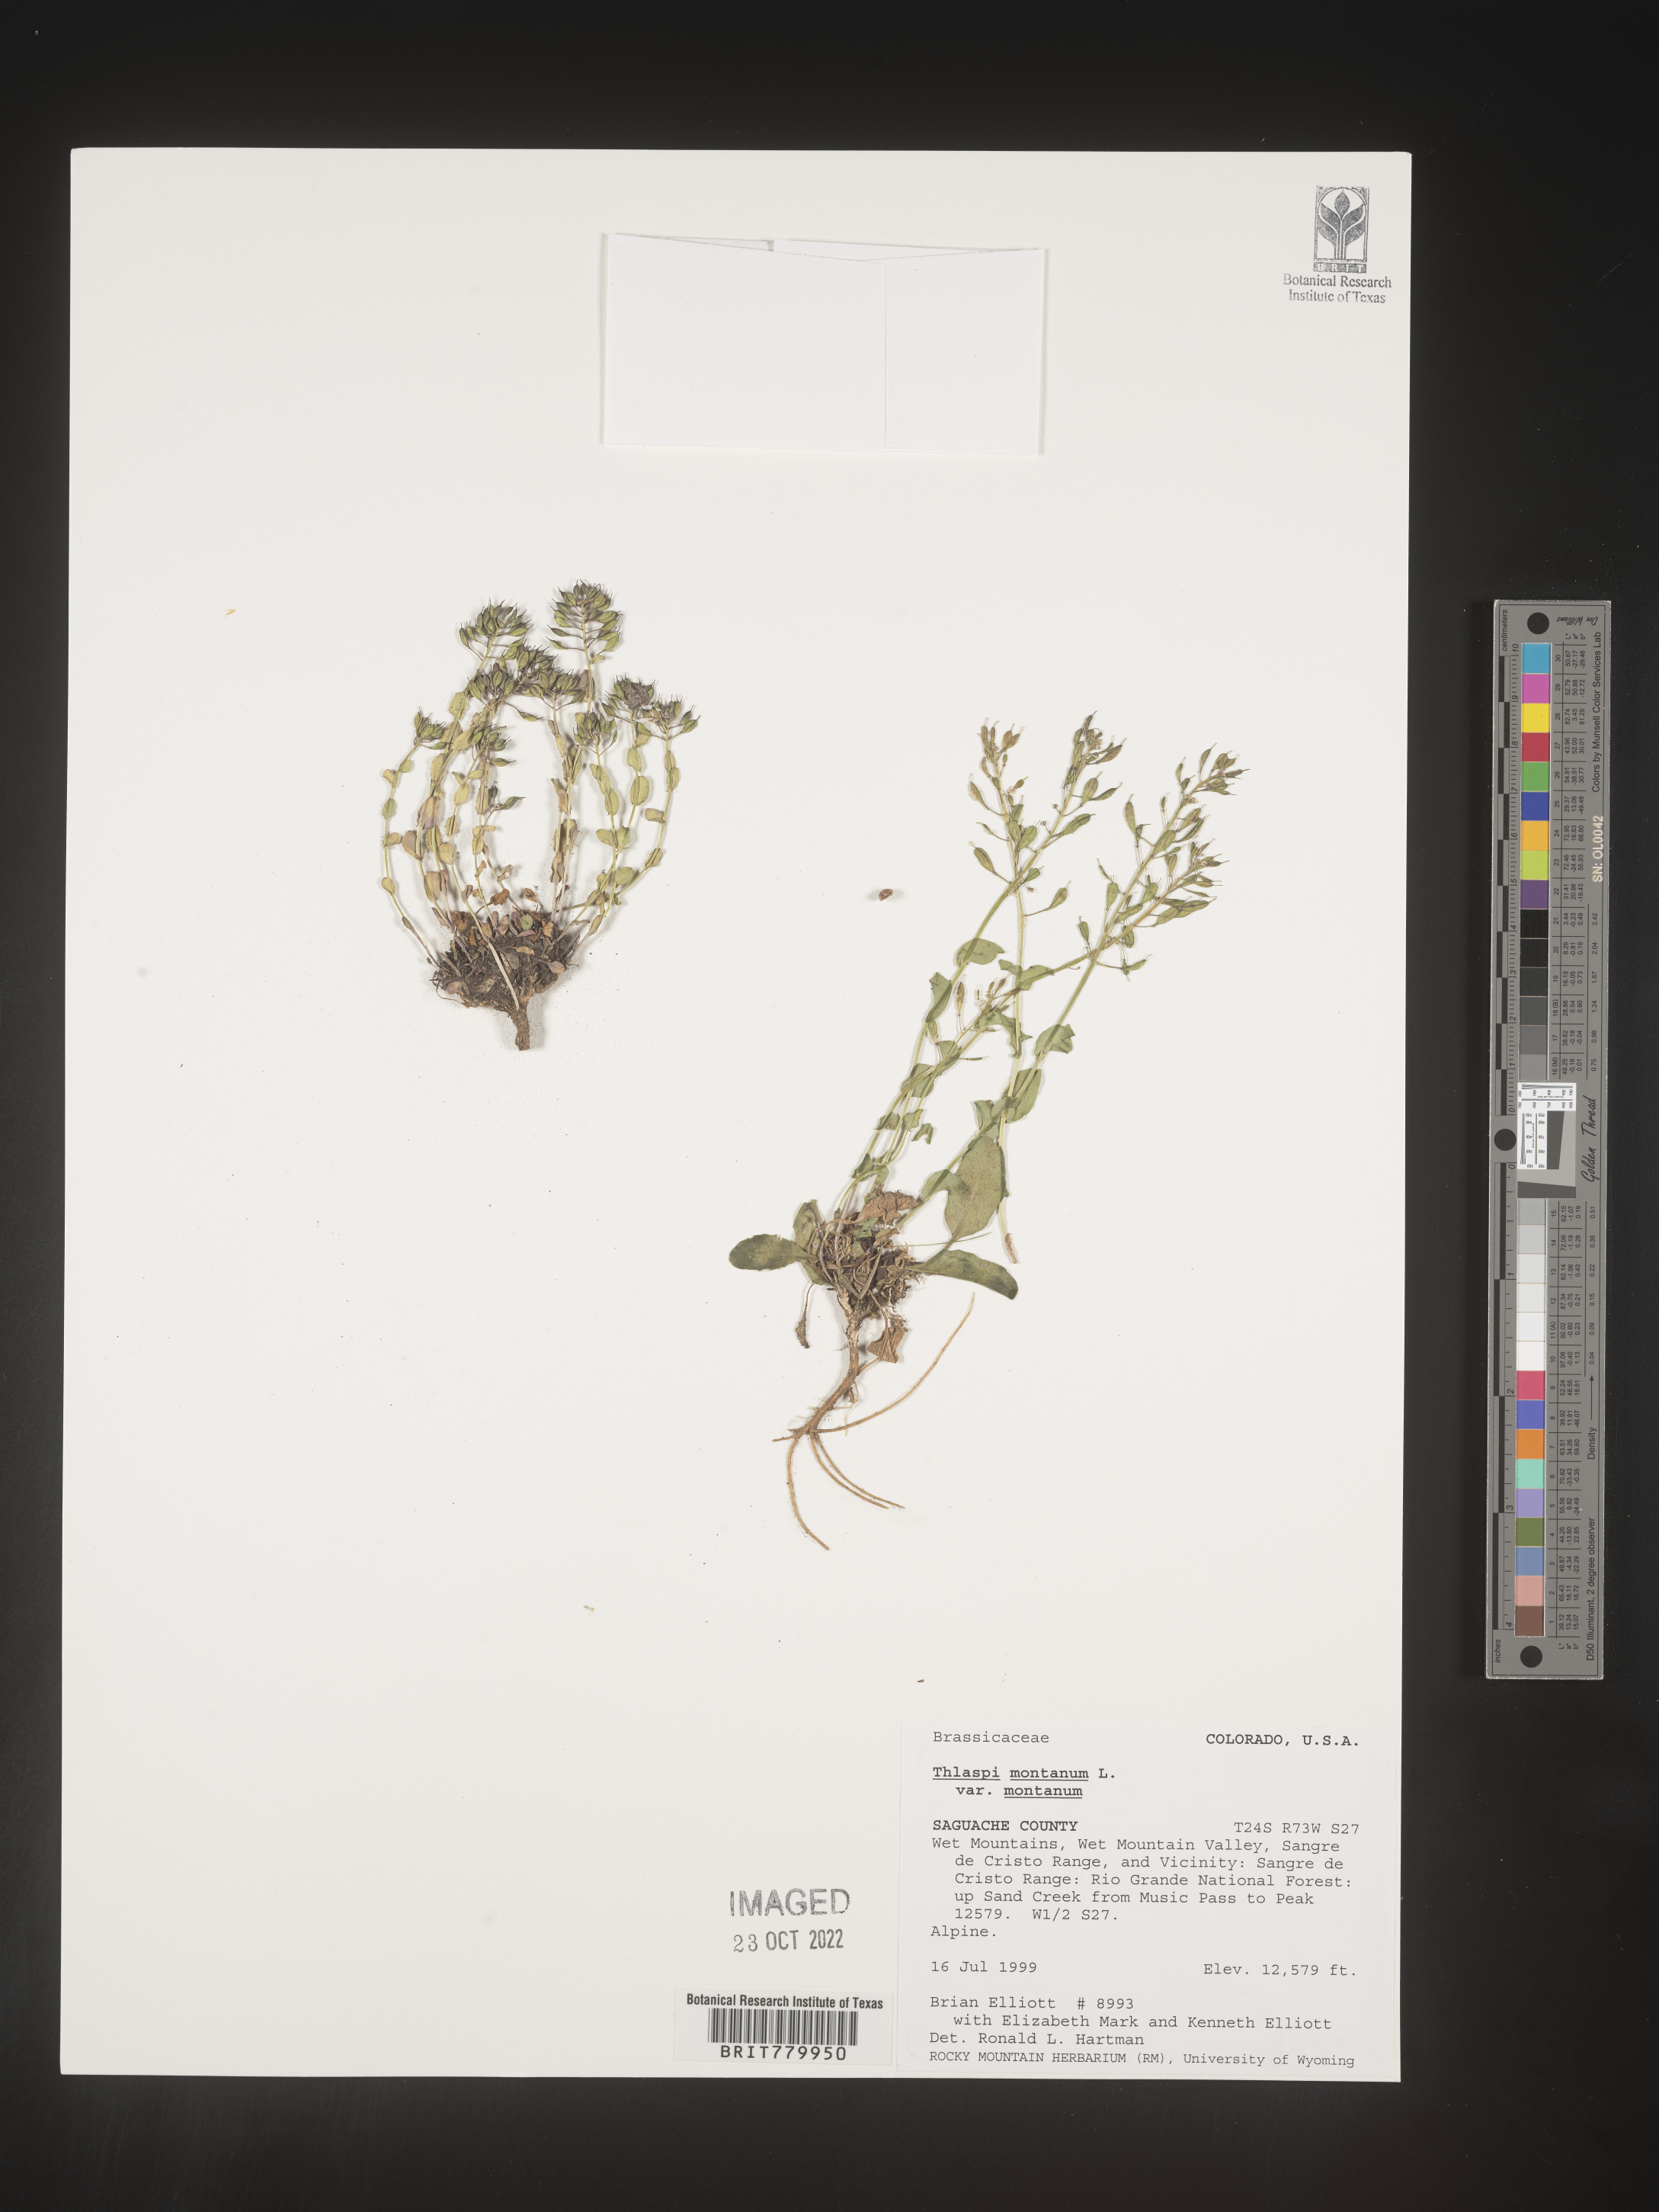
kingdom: Plantae
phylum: Tracheophyta
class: Magnoliopsida
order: Brassicales
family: Brassicaceae
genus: Thlaspi
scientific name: Thlaspi
